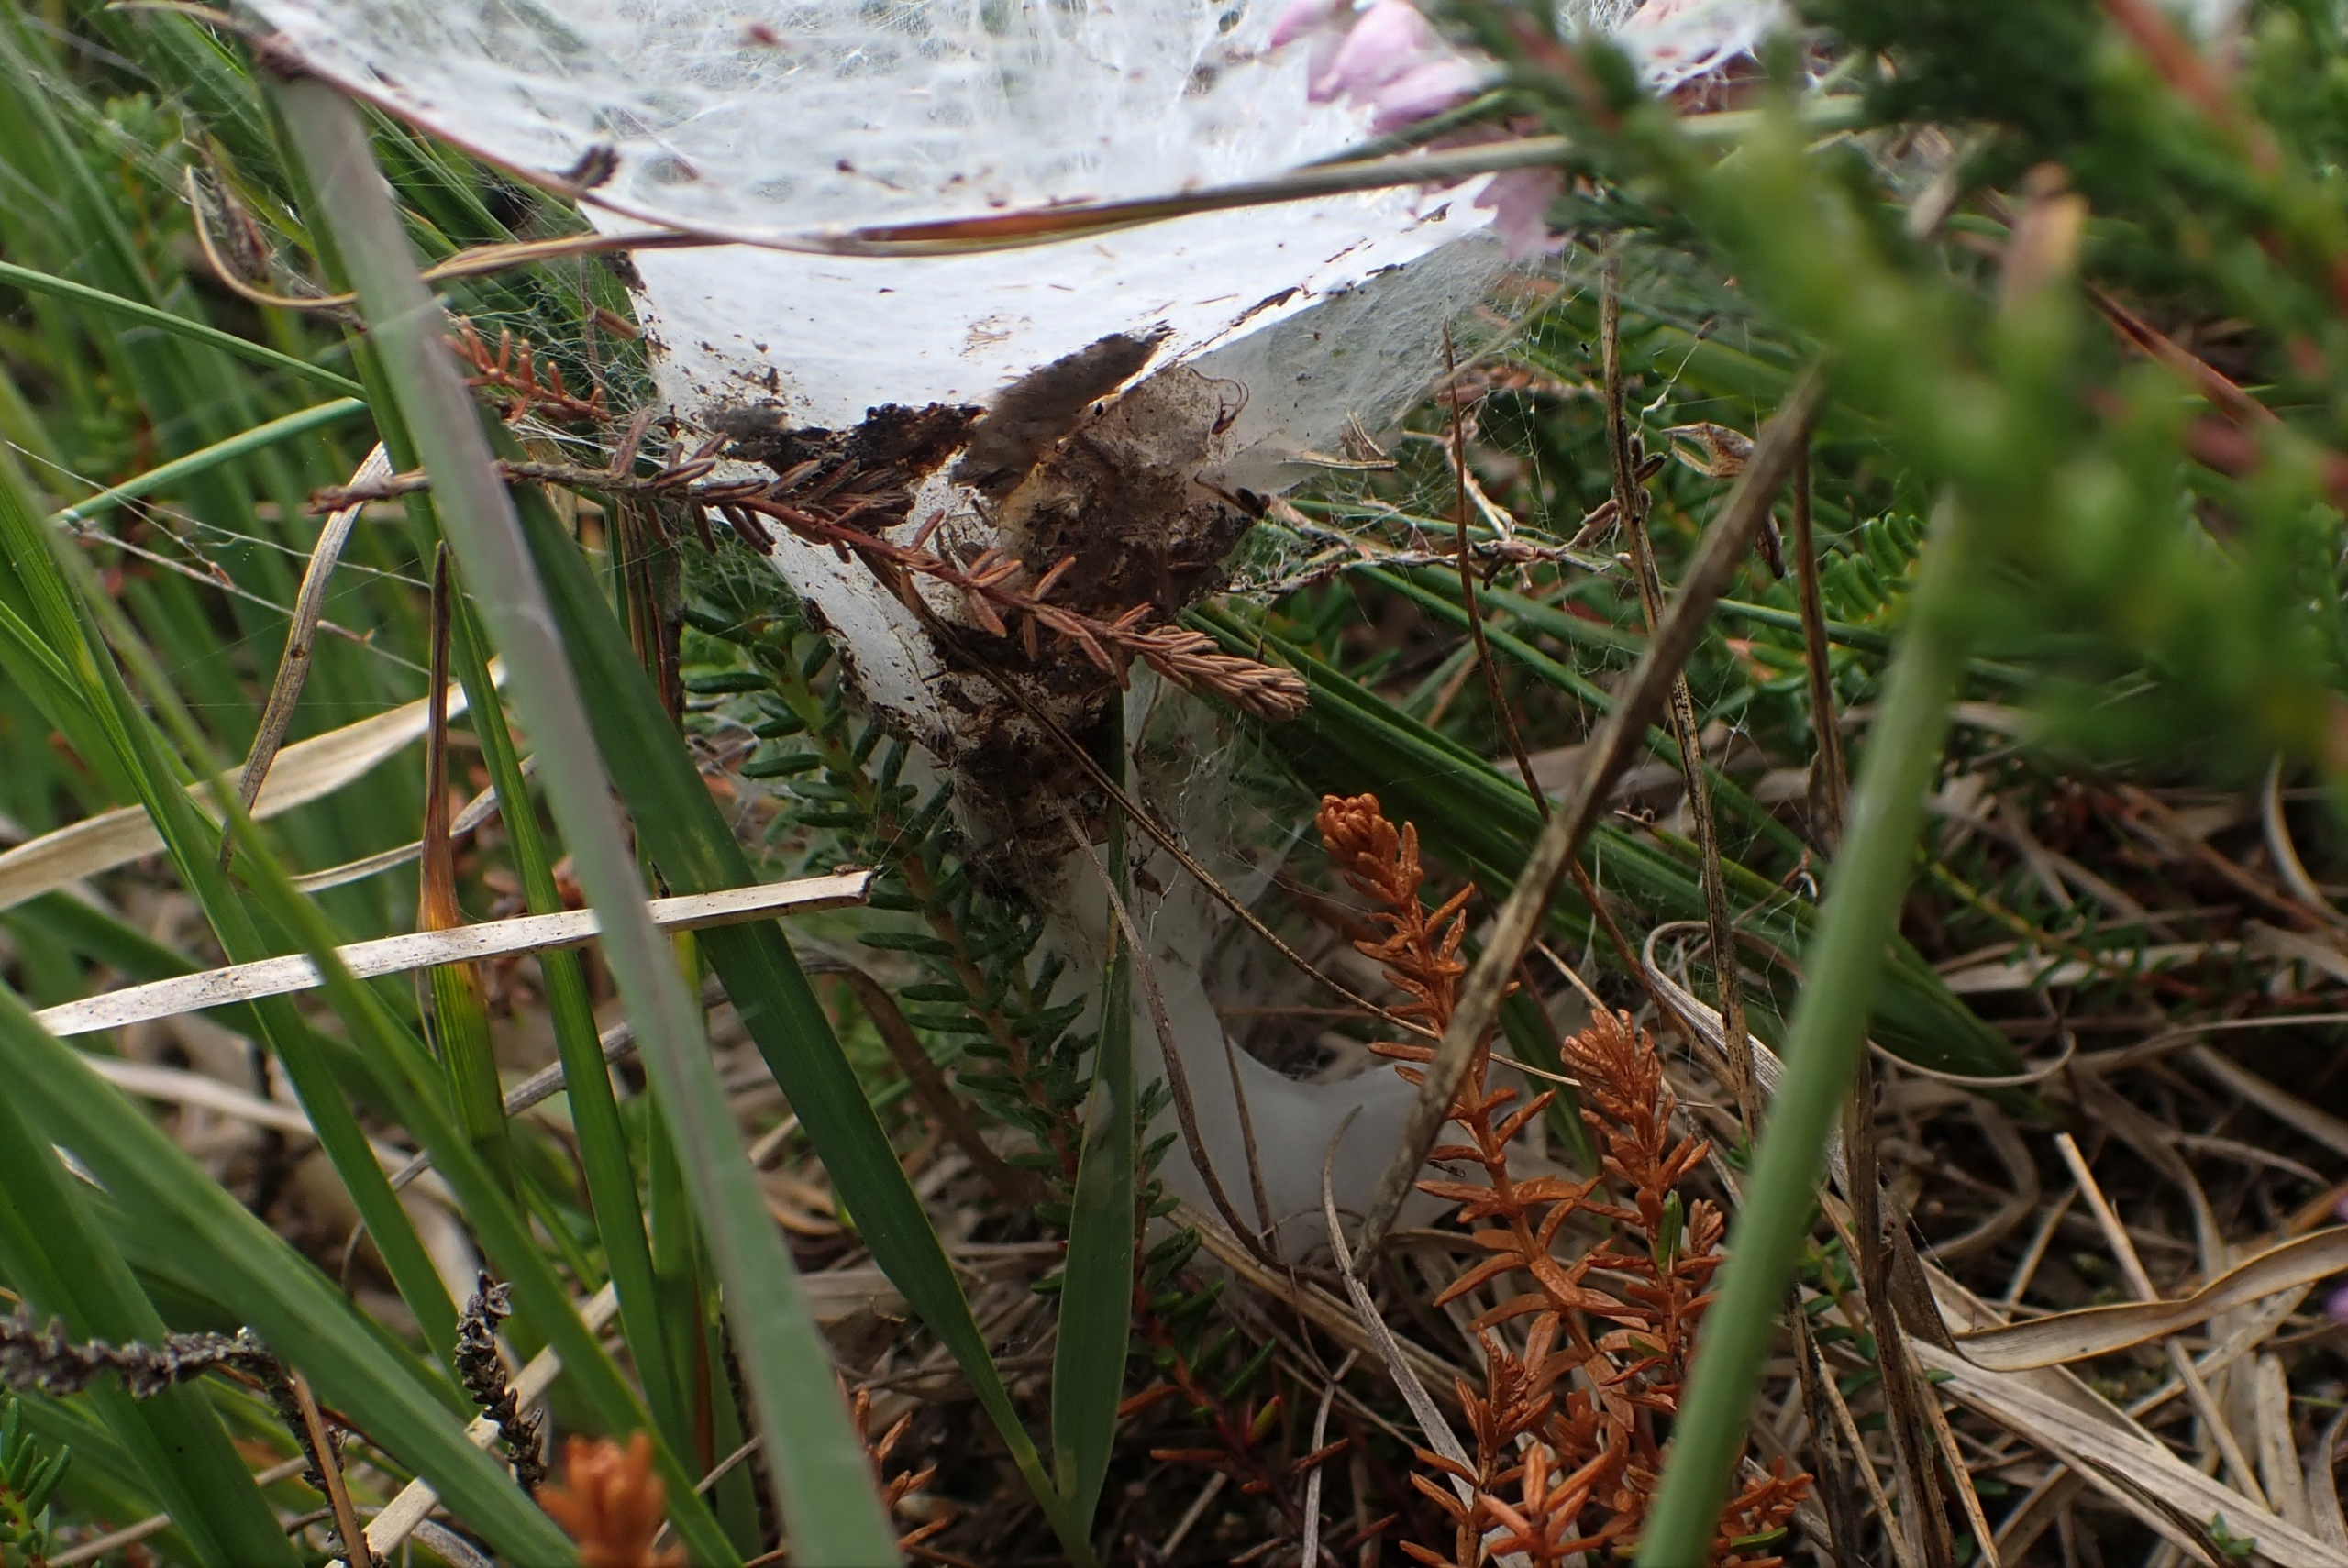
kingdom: Animalia
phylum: Arthropoda
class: Arachnida
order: Araneae
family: Agelenidae
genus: Agelena
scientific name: Agelena labyrinthica
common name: Labyrintedderkop
